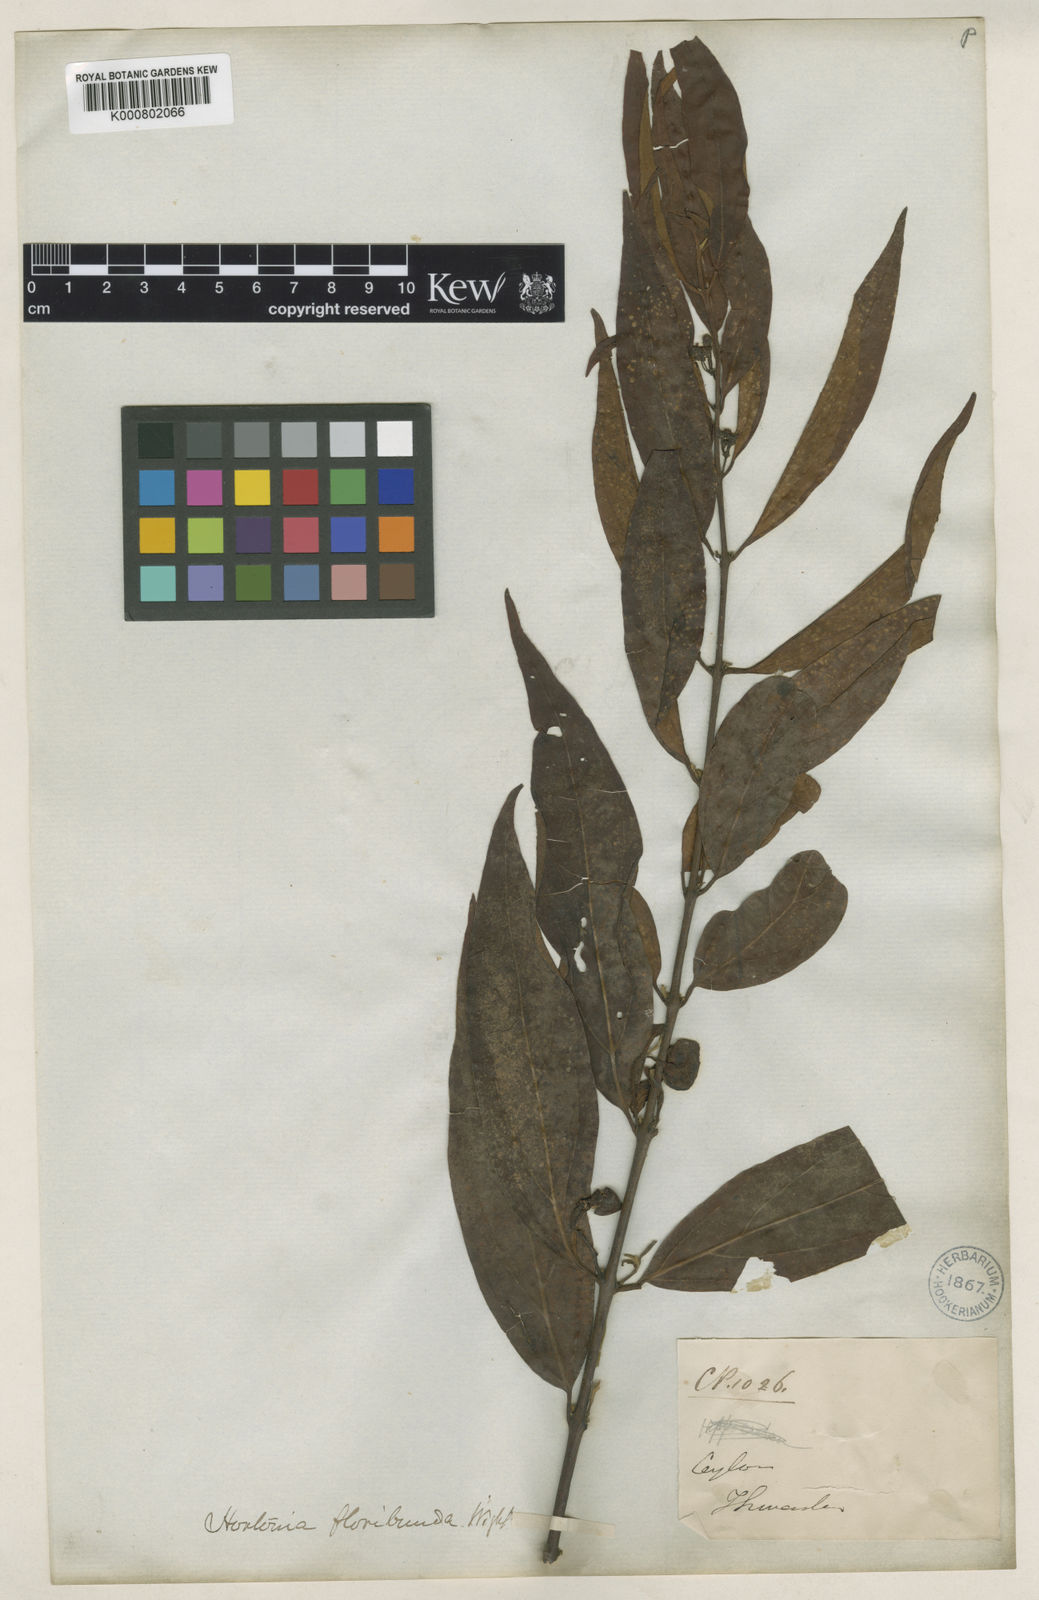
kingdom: Plantae
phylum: Tracheophyta
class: Magnoliopsida
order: Laurales
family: Monimiaceae
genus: Hortonia
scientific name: Hortonia angustifolia
